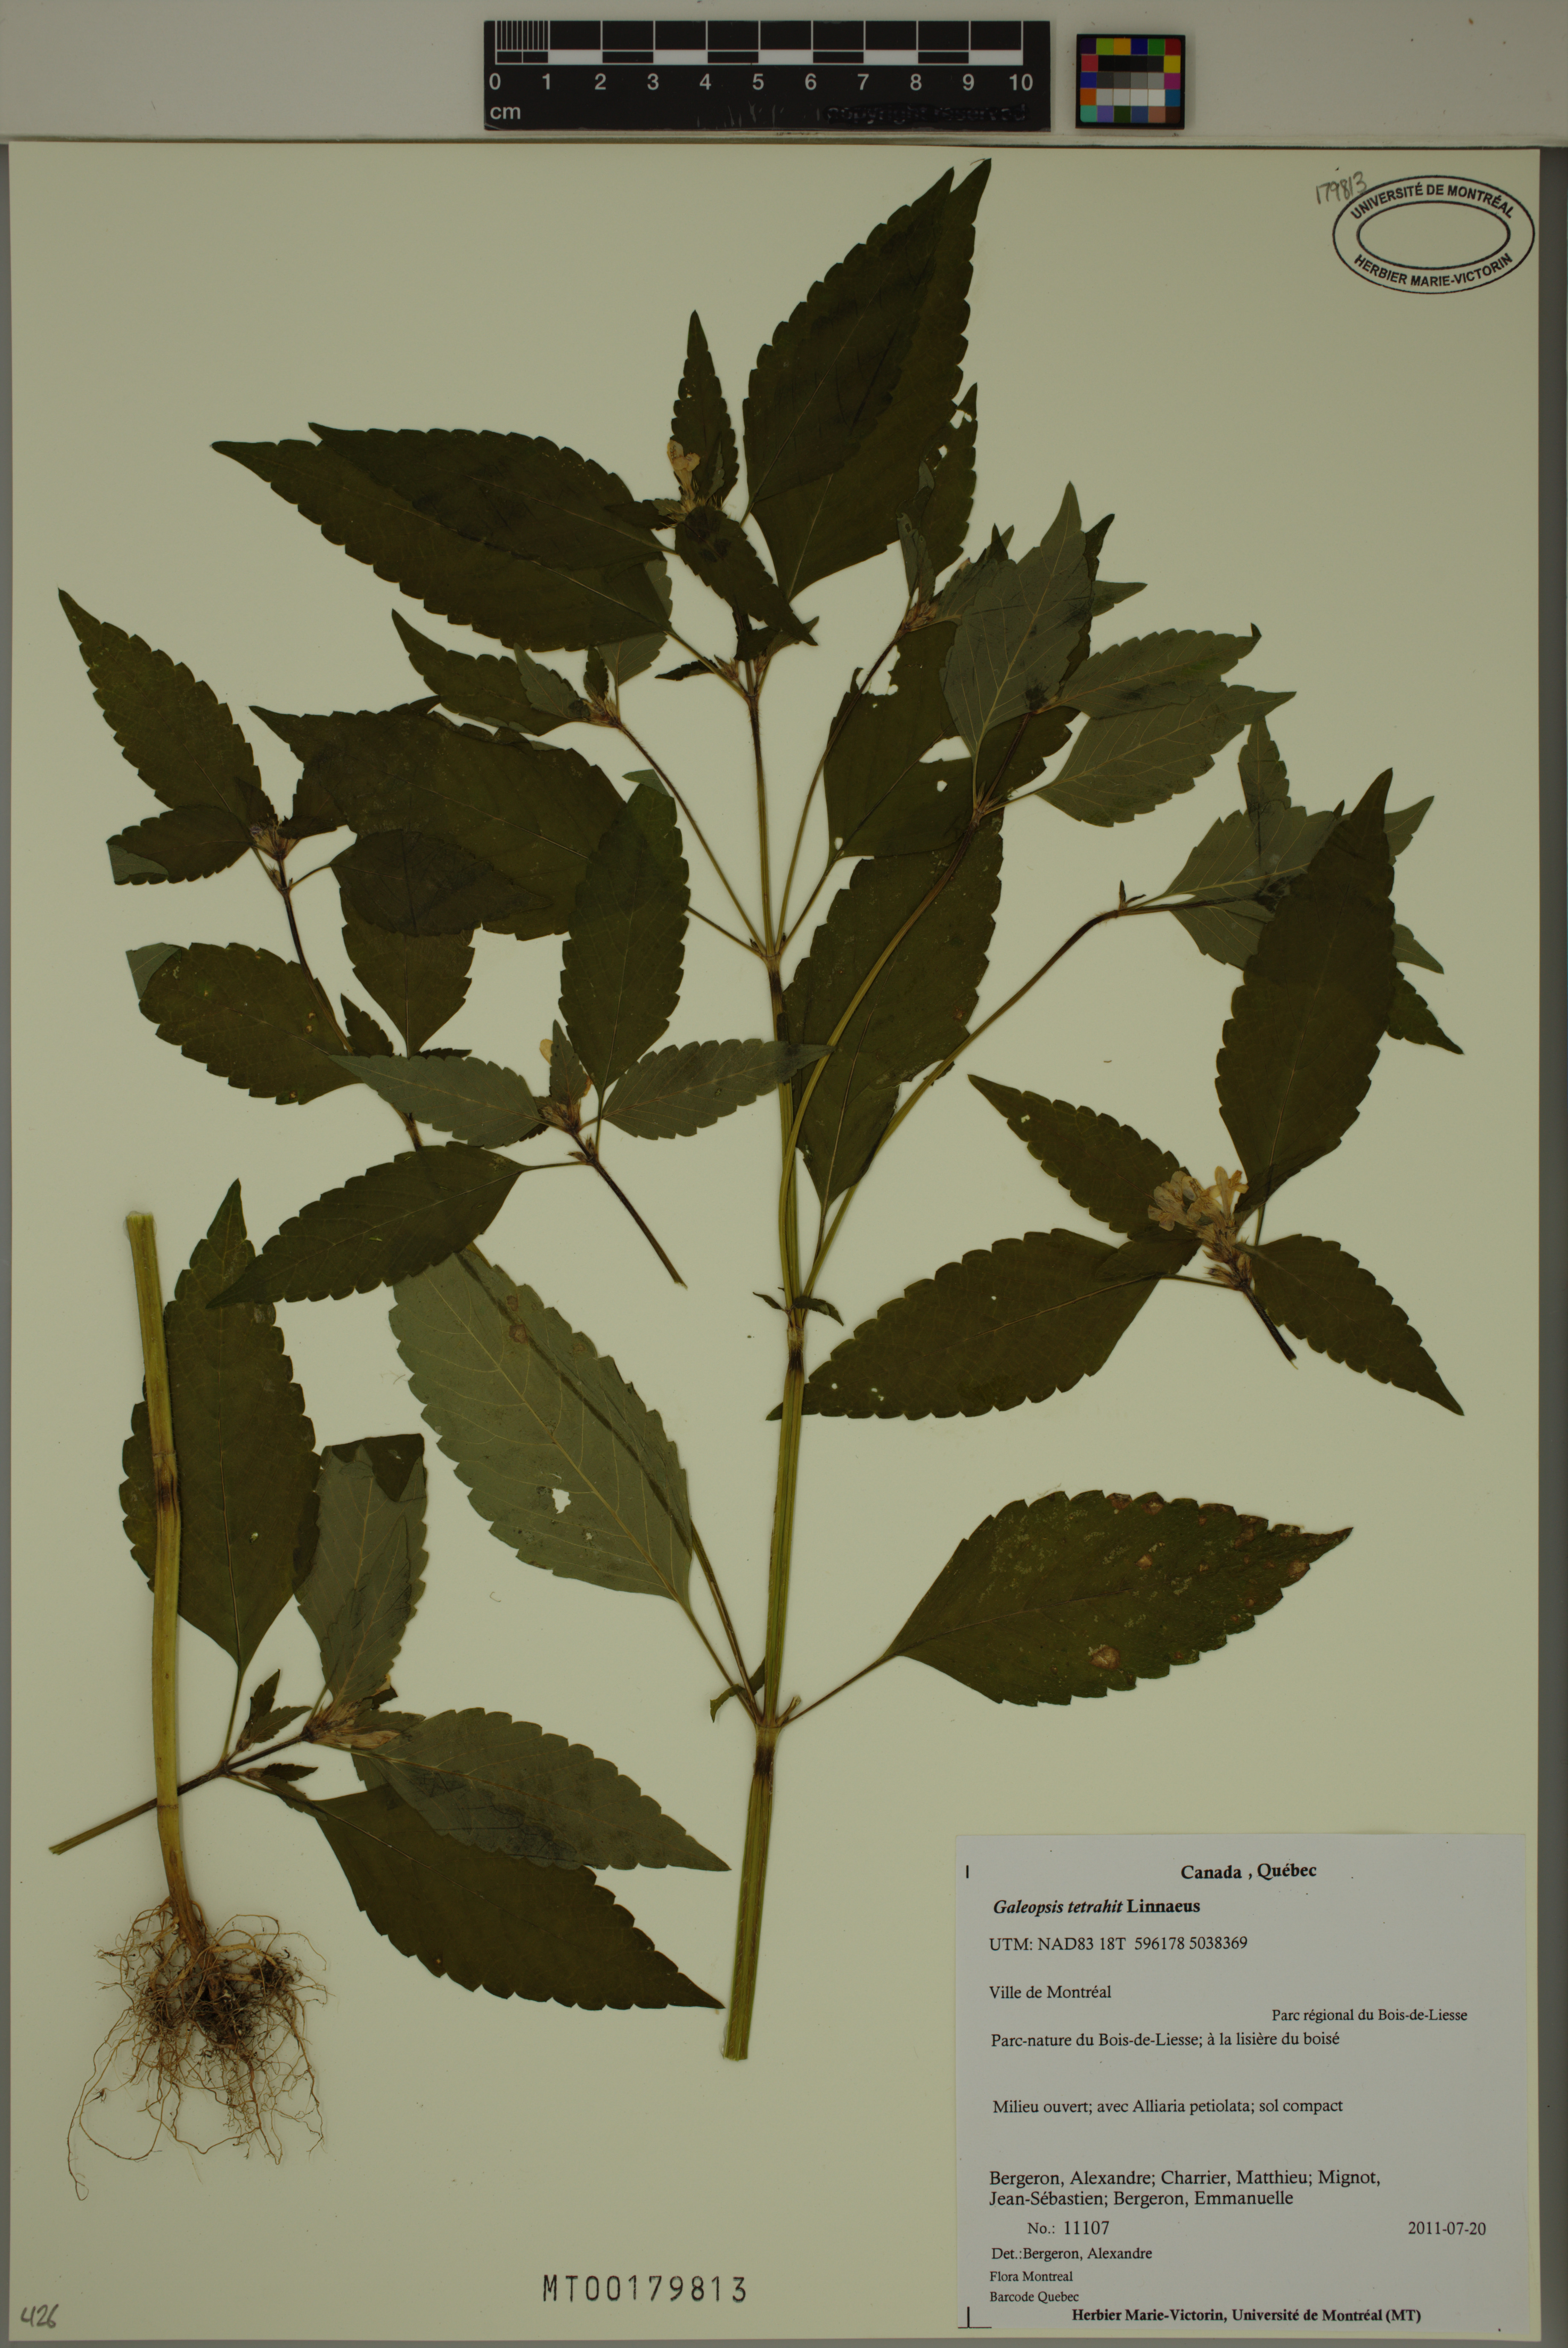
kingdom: Plantae
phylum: Tracheophyta
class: Magnoliopsida
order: Lamiales
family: Lamiaceae
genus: Galeopsis
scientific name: Galeopsis tetrahit
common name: Common hemp-nettle
